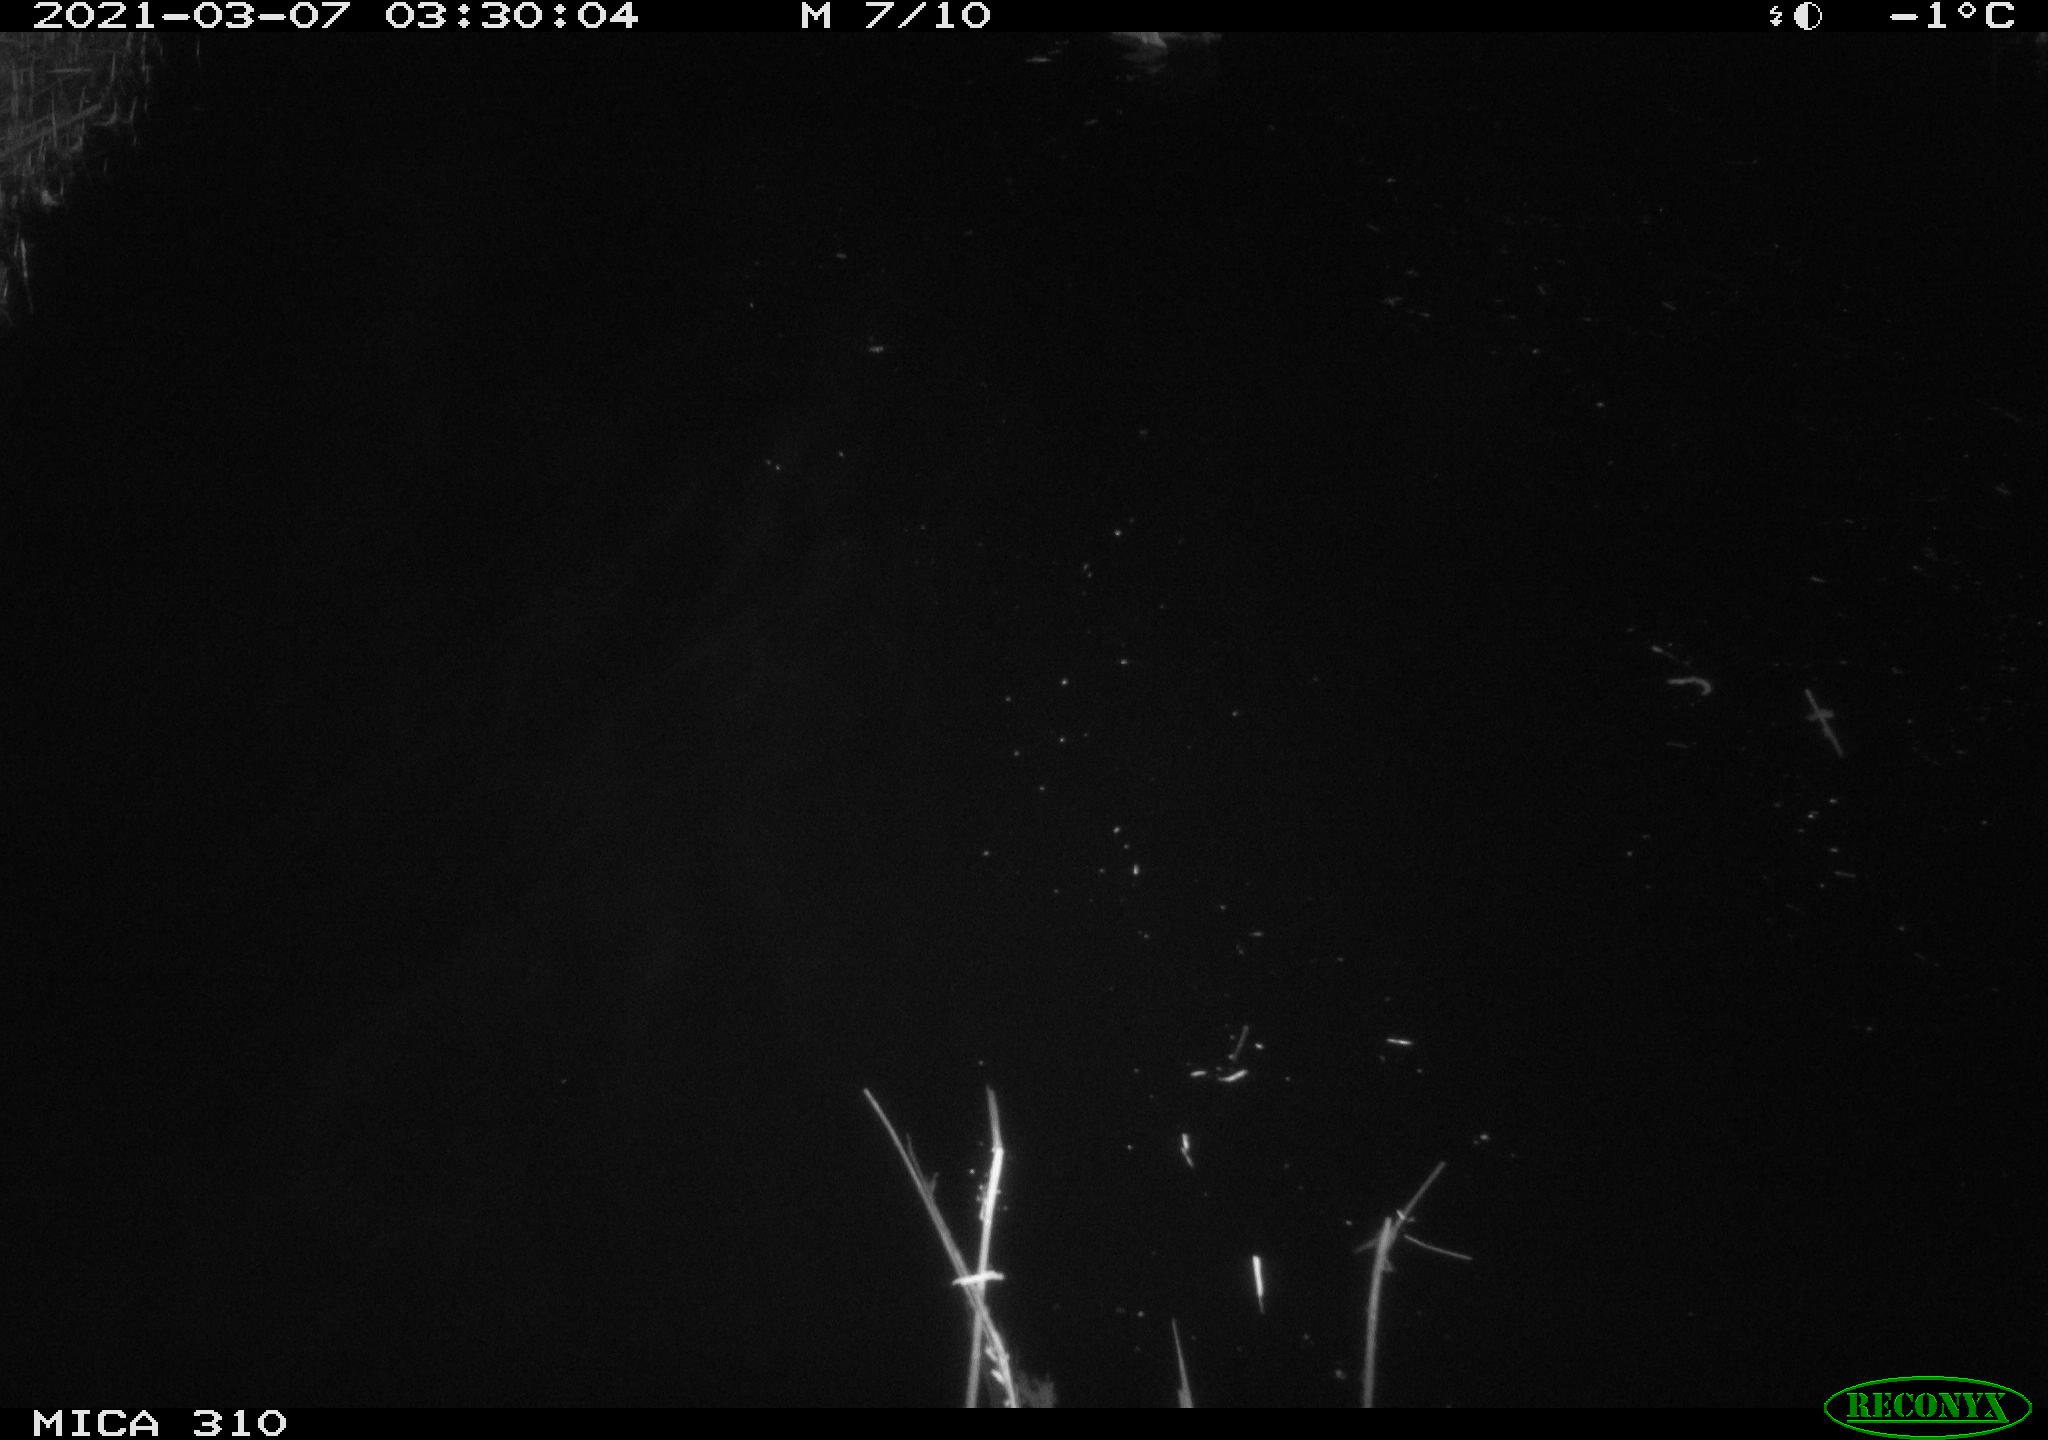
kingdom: Animalia
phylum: Chordata
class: Aves
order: Anseriformes
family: Anatidae
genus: Anas
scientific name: Anas platyrhynchos
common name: Mallard
